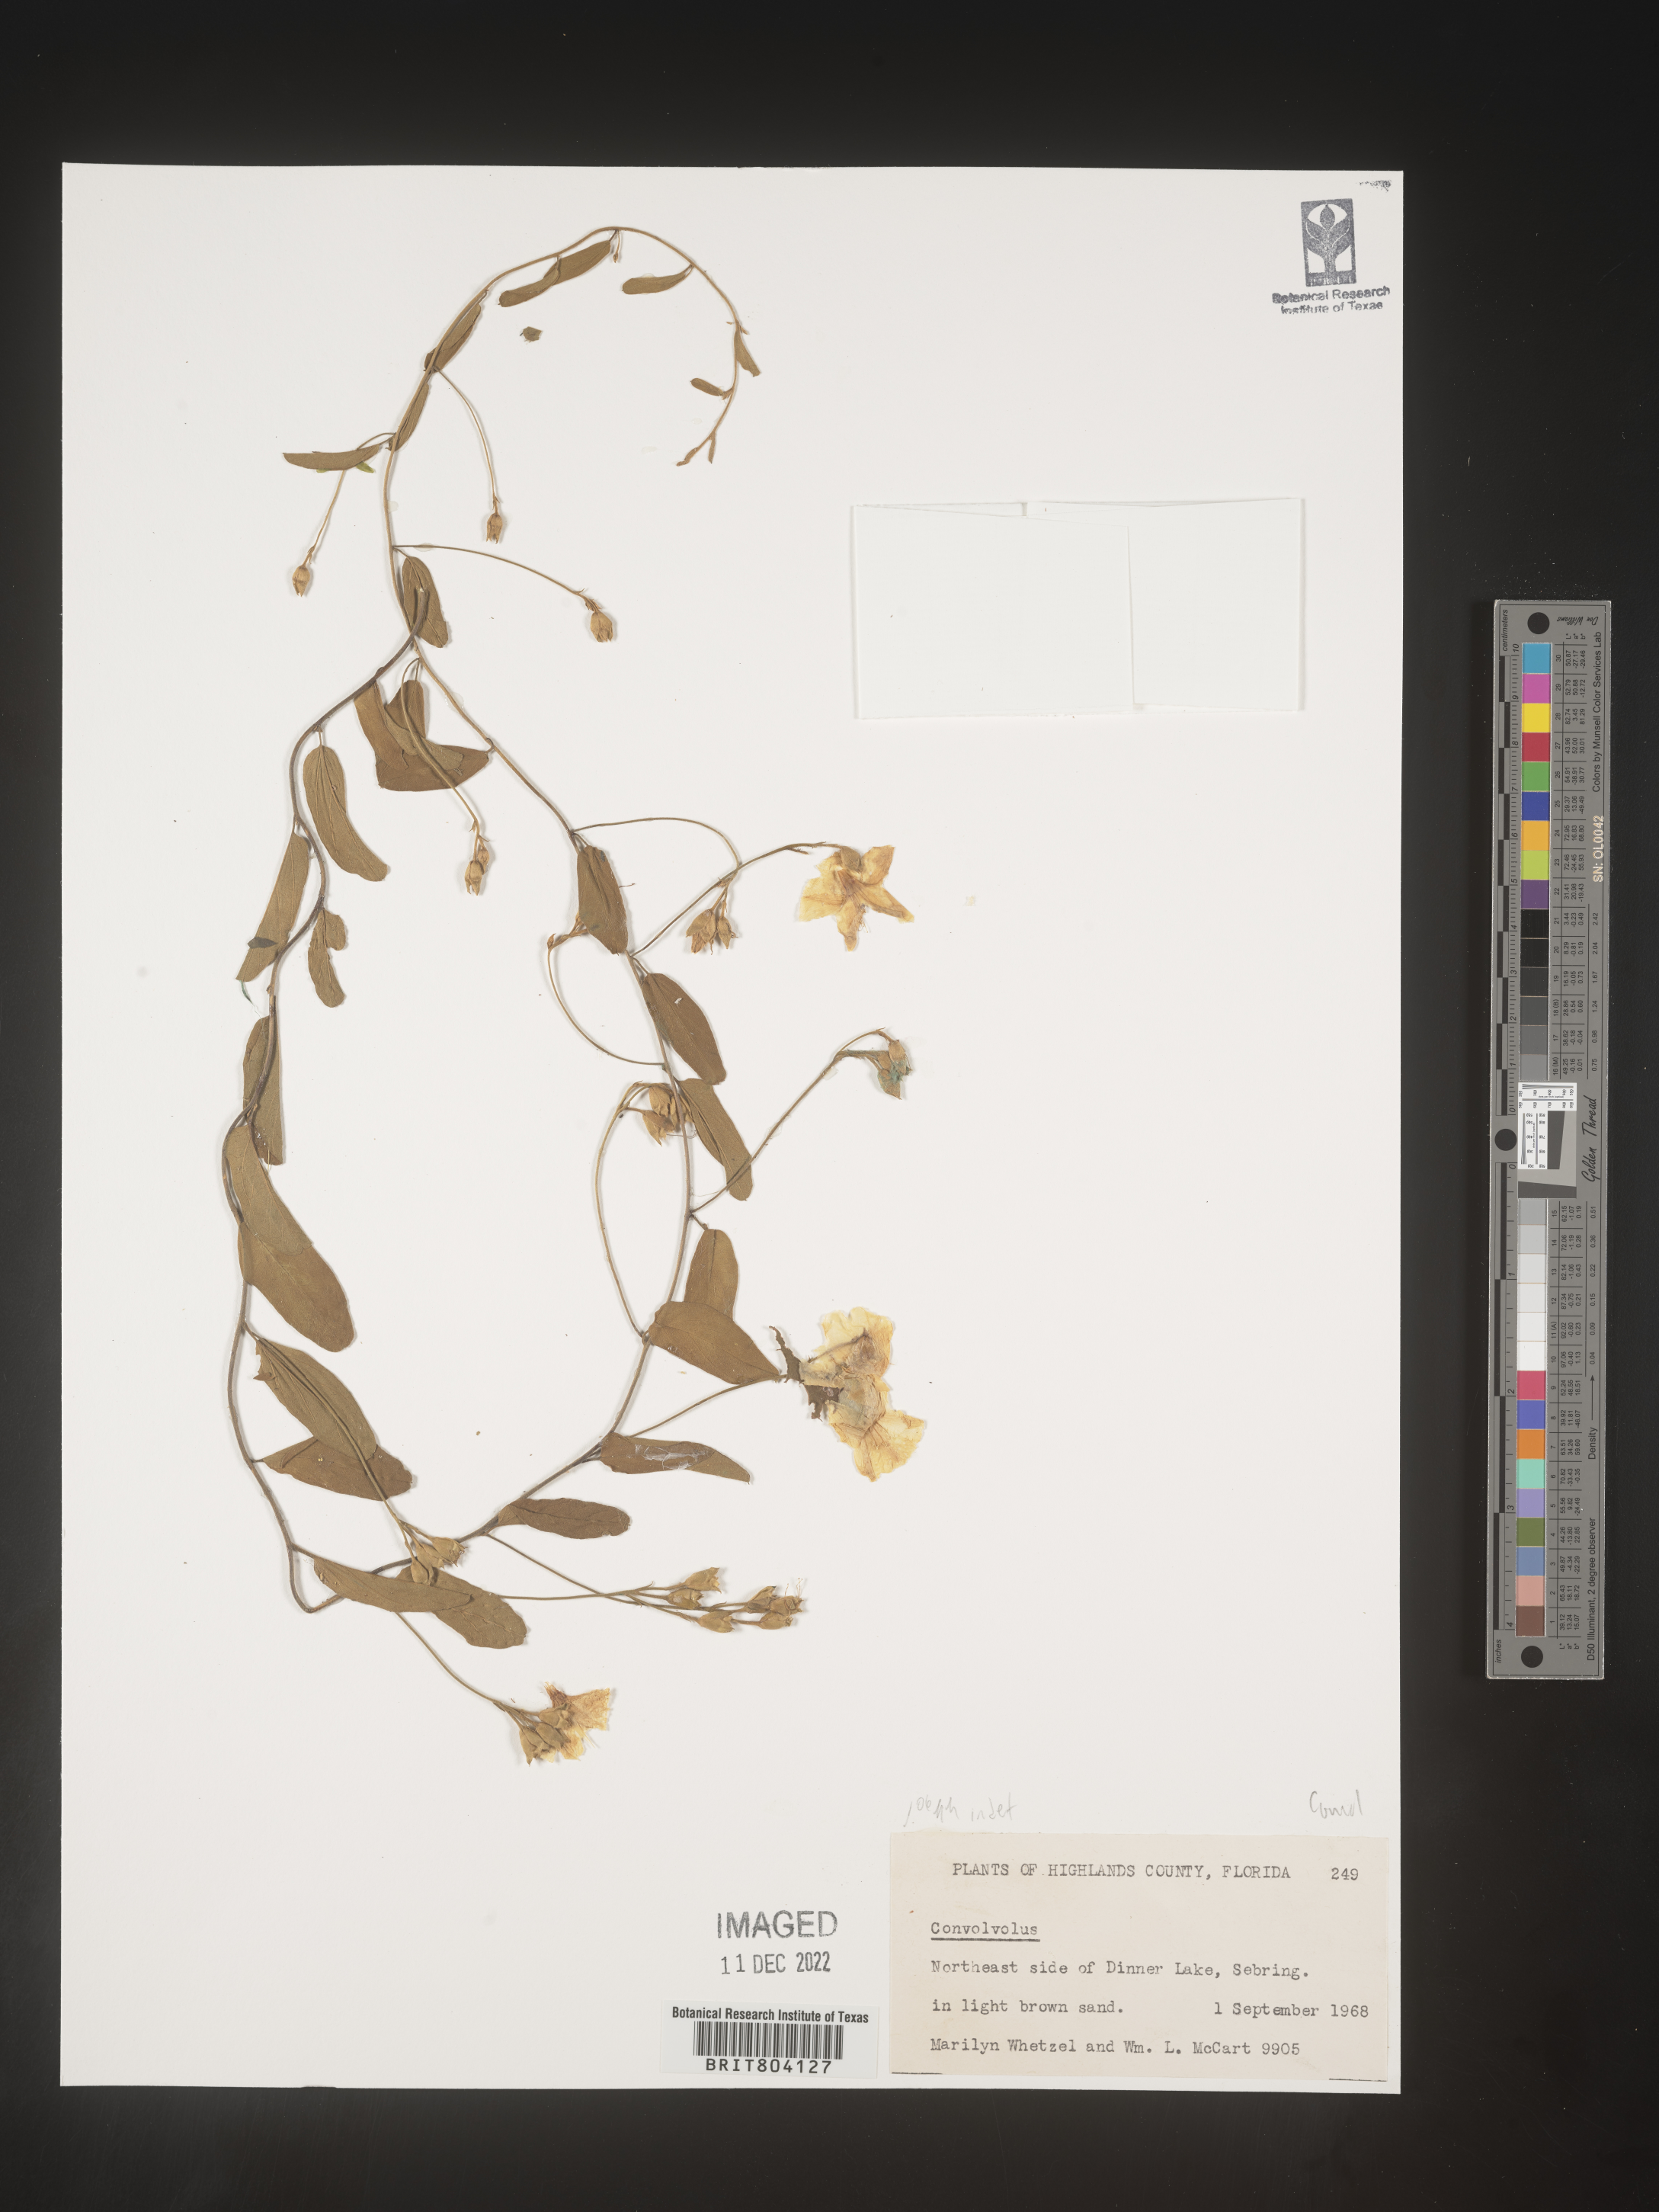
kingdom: Plantae
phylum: Tracheophyta
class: Magnoliopsida
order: Solanales
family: Convolvulaceae
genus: Convolvulus
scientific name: Convolvulus
